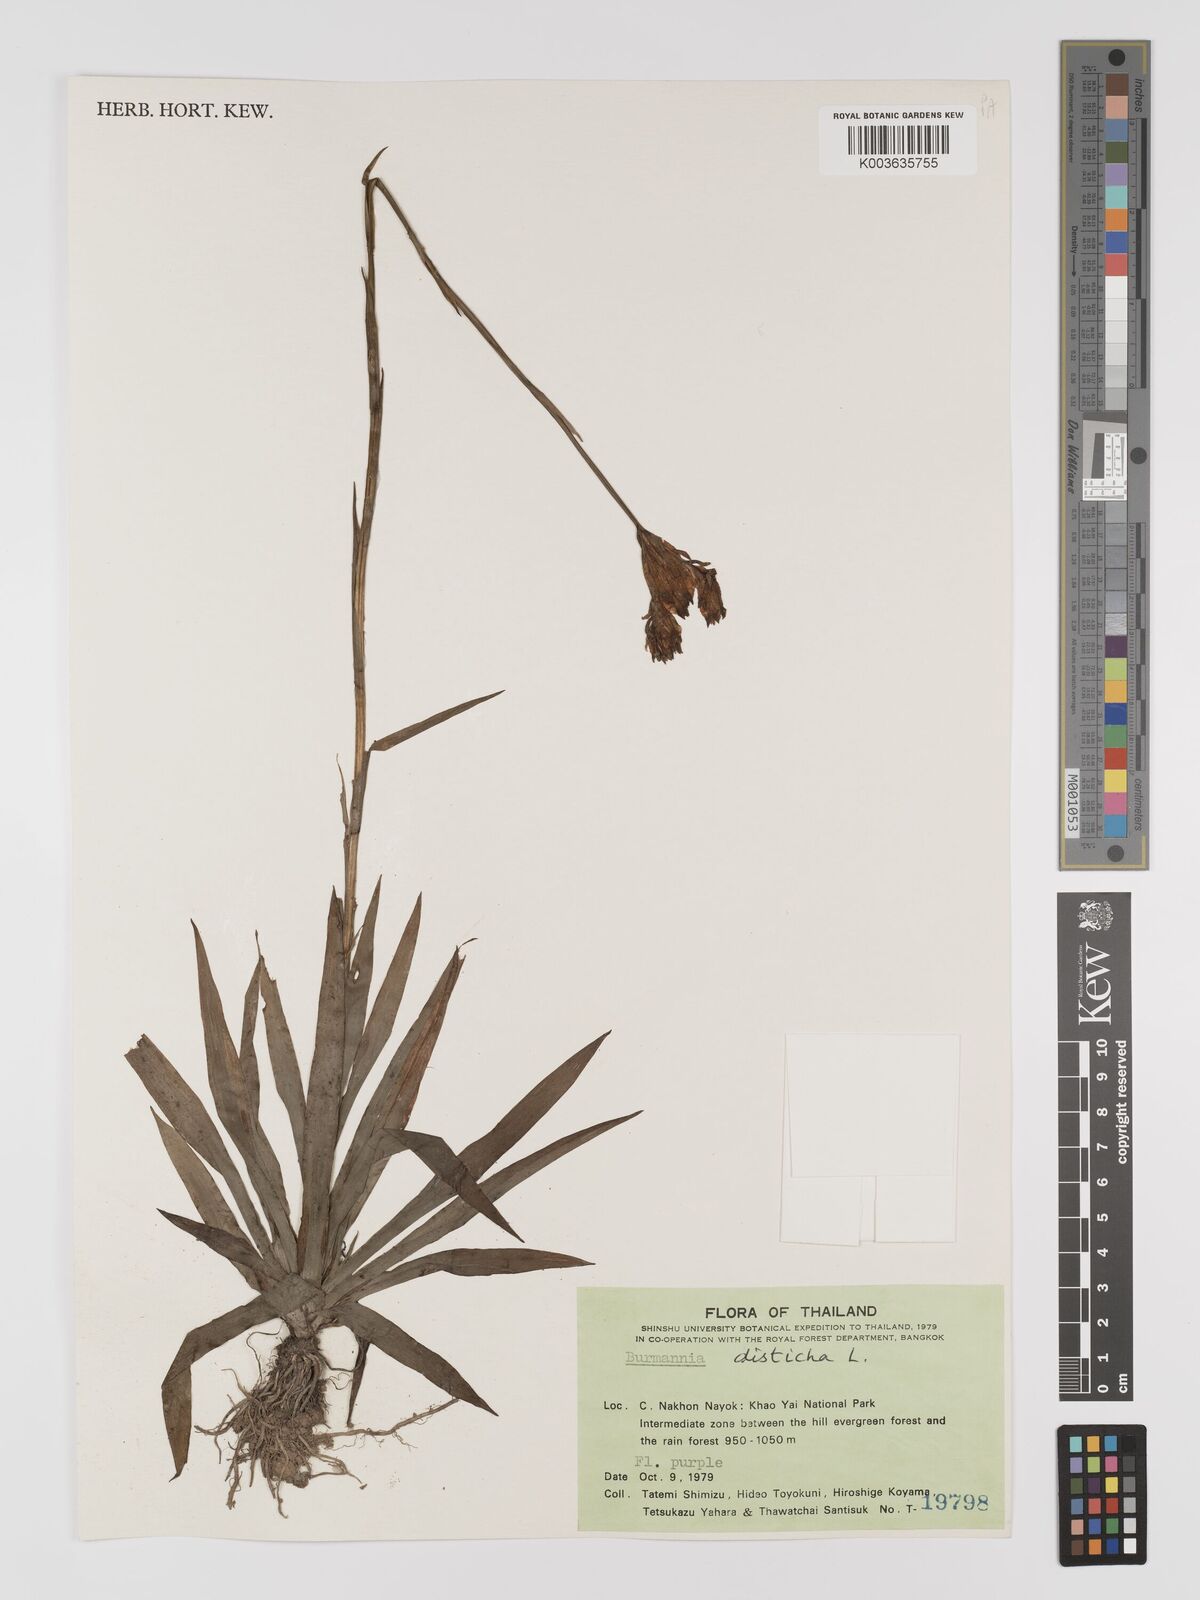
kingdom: Plantae
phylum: Tracheophyta
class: Liliopsida
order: Dioscoreales
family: Burmanniaceae
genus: Burmannia
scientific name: Burmannia disticha
